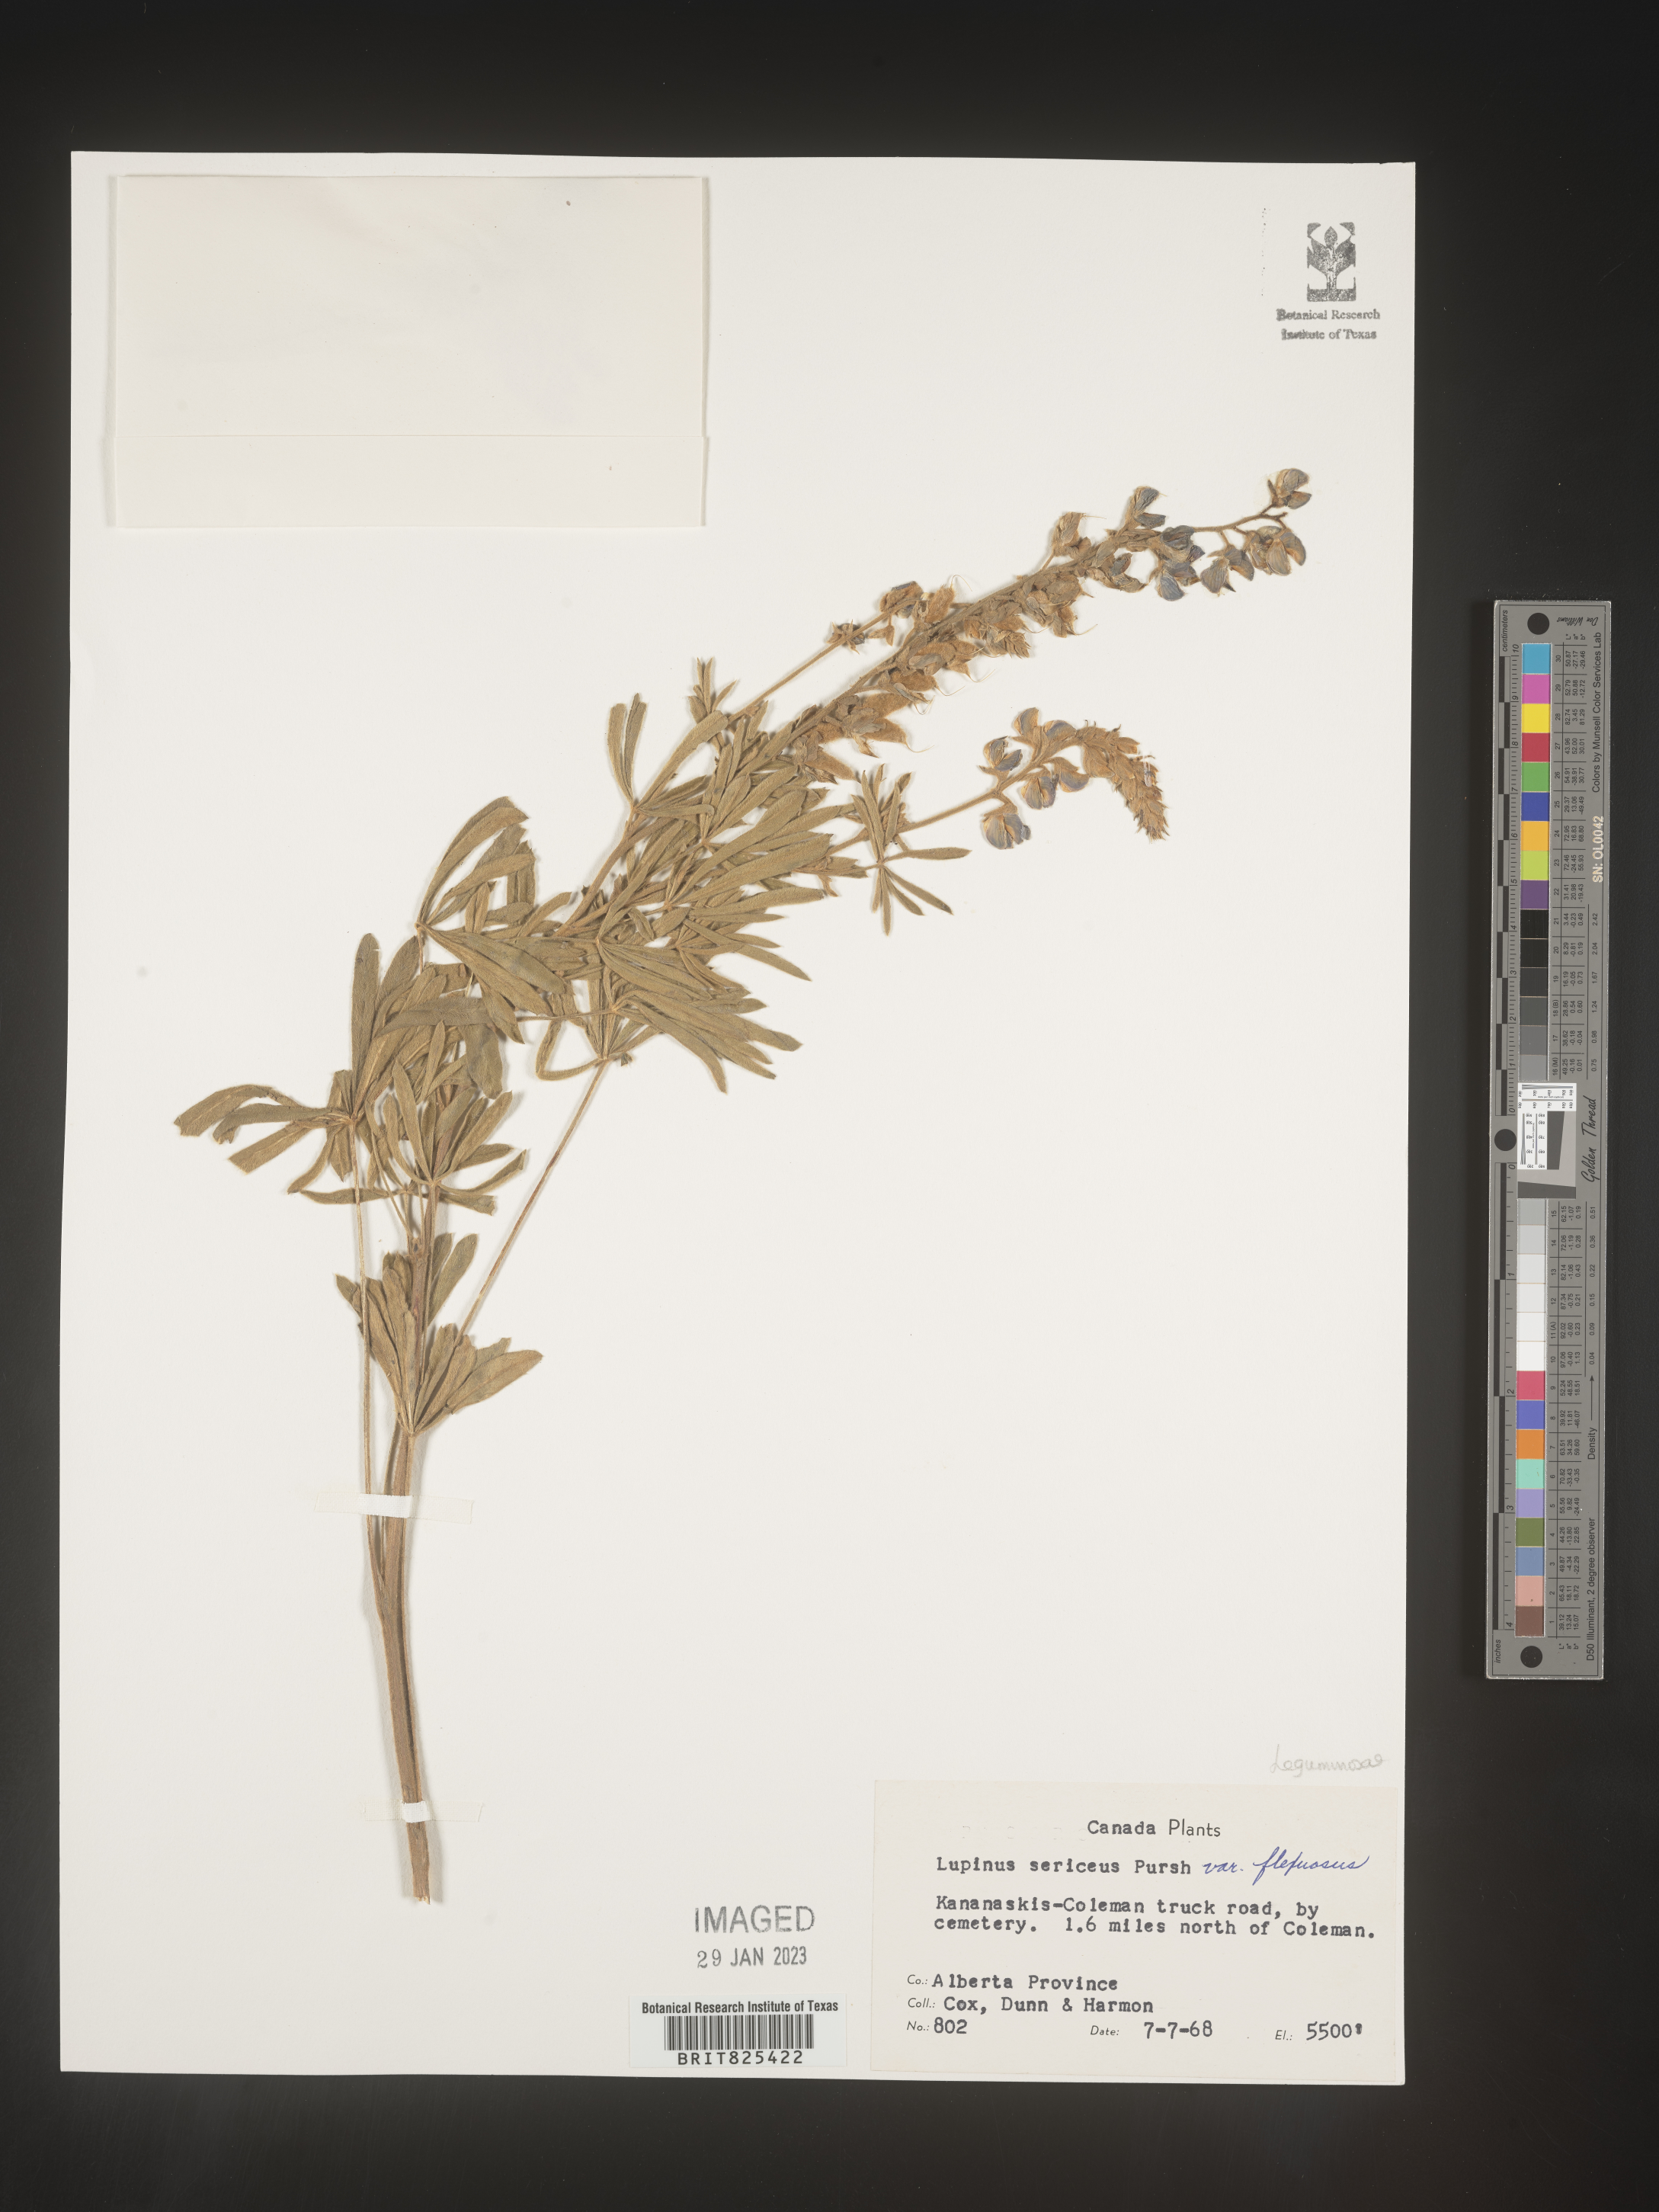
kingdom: Plantae
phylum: Tracheophyta
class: Magnoliopsida
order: Fabales
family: Fabaceae
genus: Lupinus
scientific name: Lupinus sericeus
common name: Silky lupine
